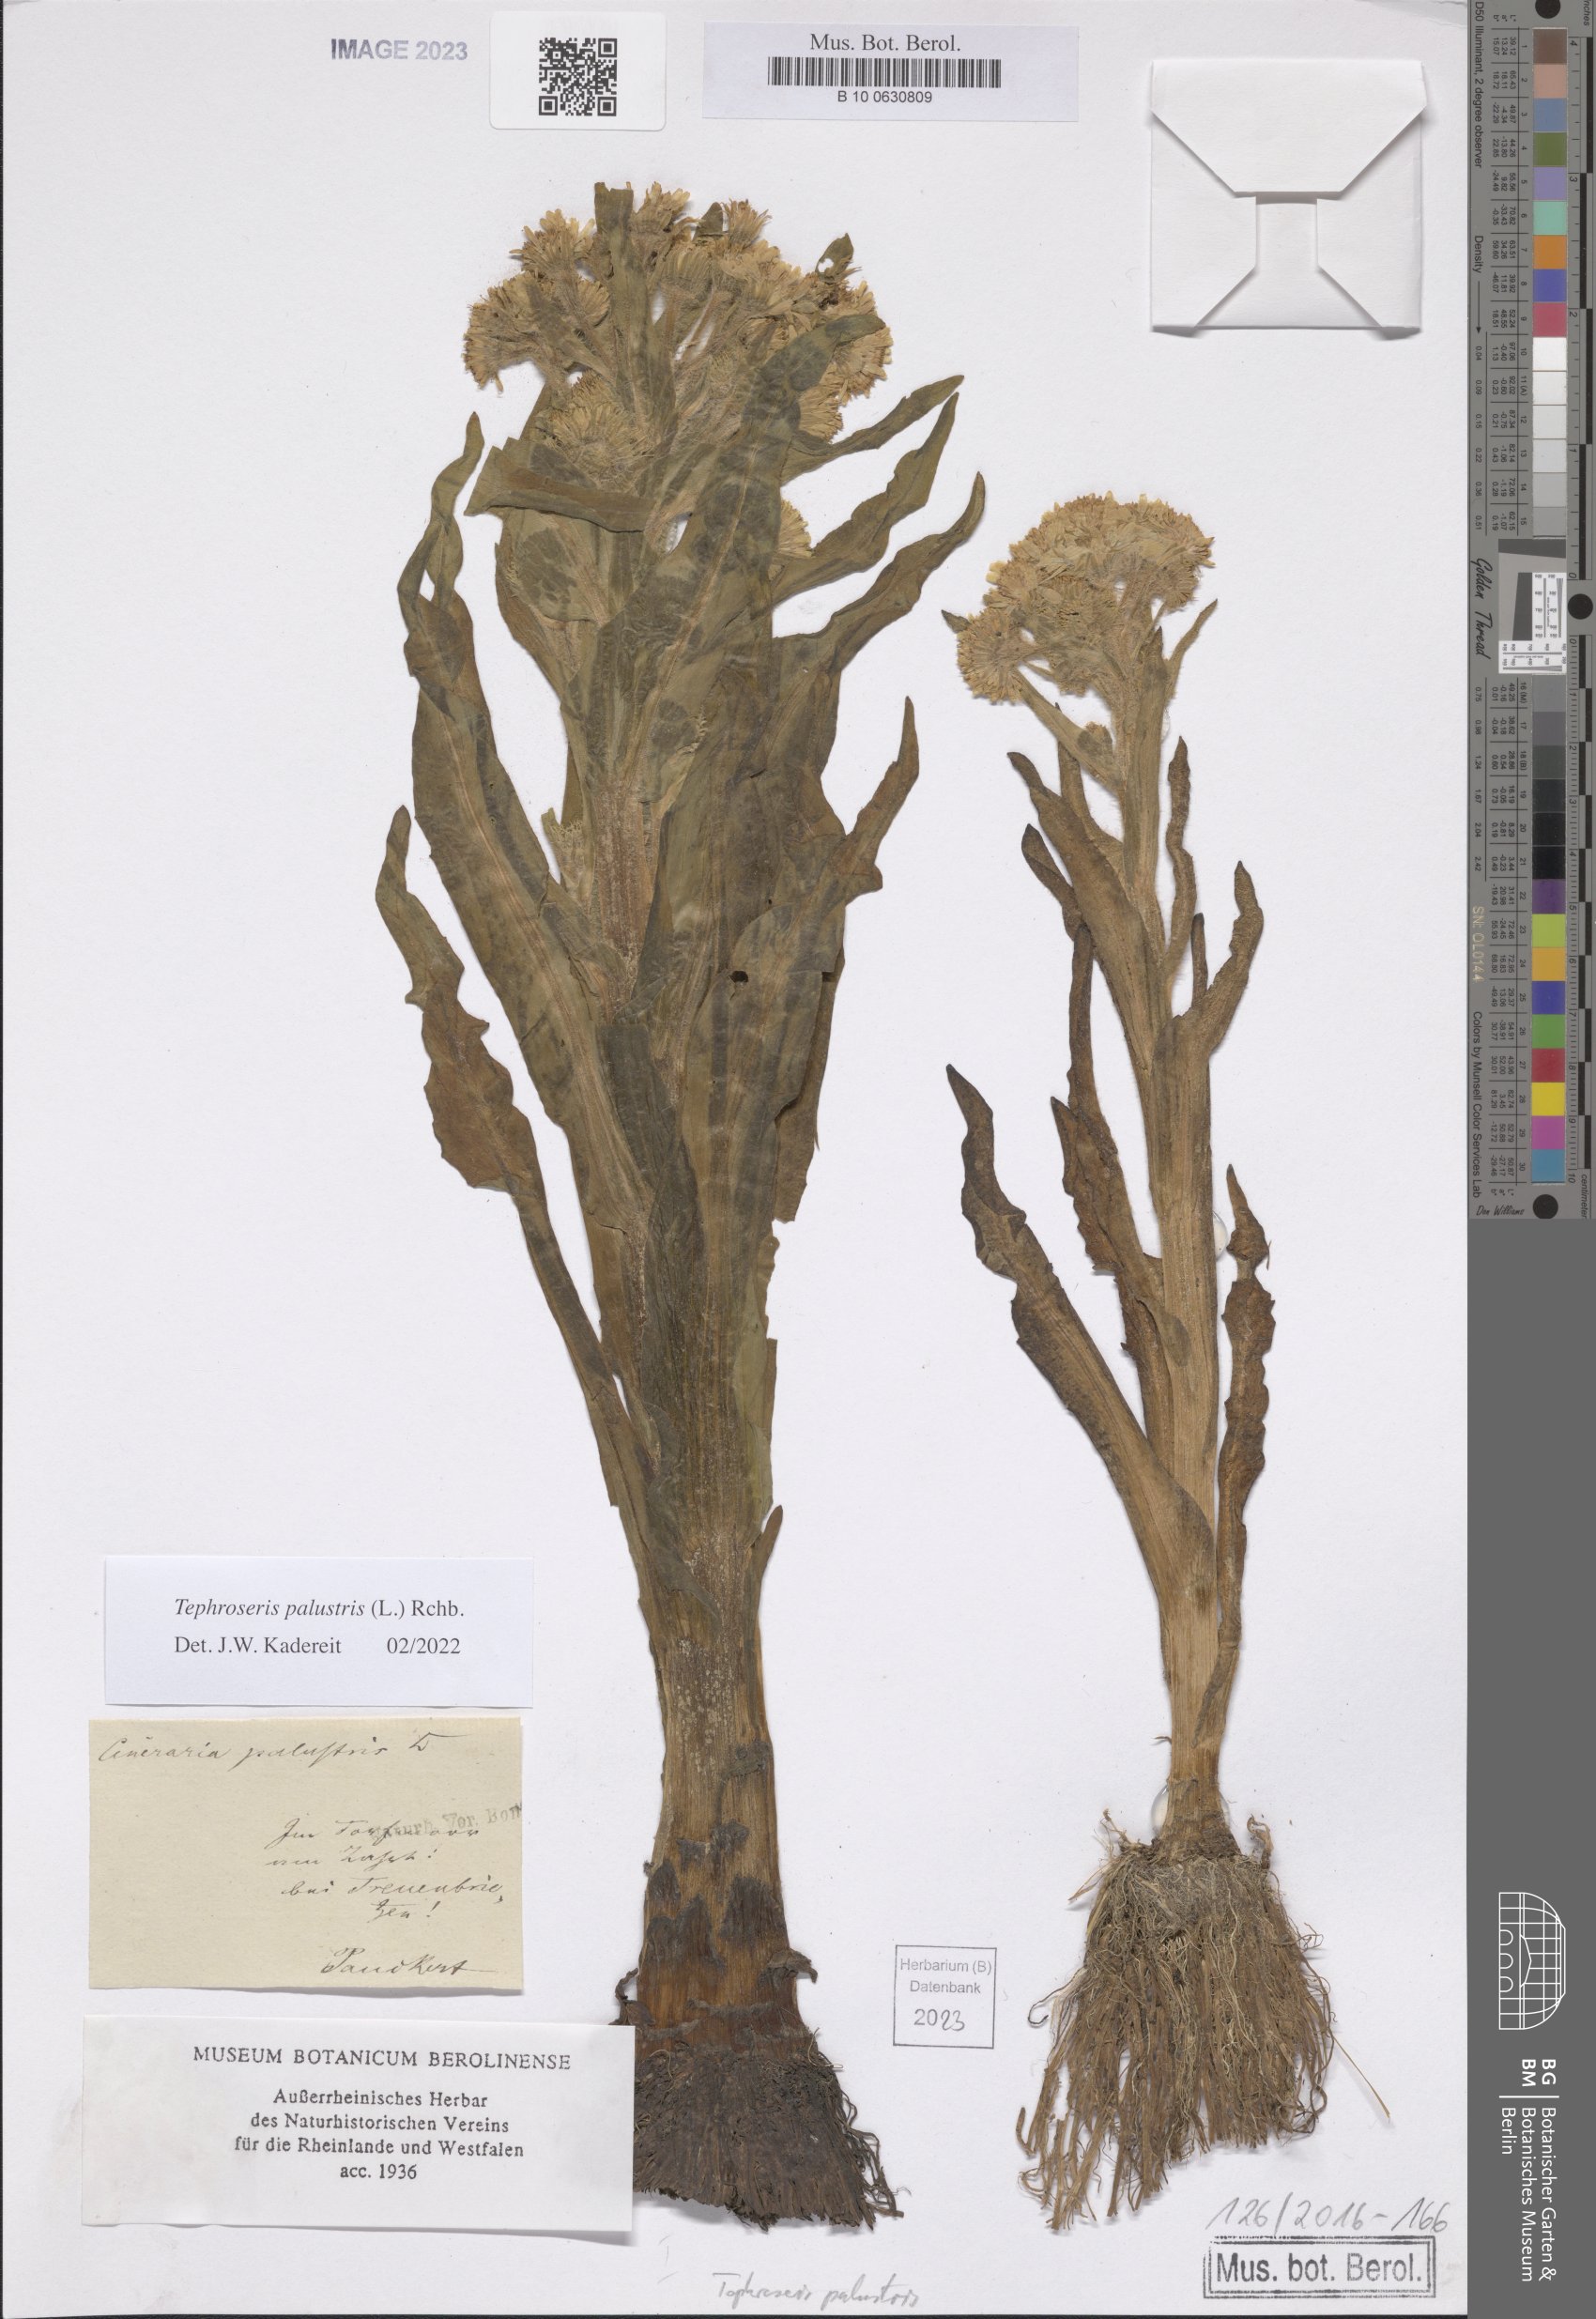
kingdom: Plantae
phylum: Tracheophyta
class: Magnoliopsida
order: Asterales
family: Asteraceae
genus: Tephroseris
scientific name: Tephroseris palustris
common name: Marsh fleawort
